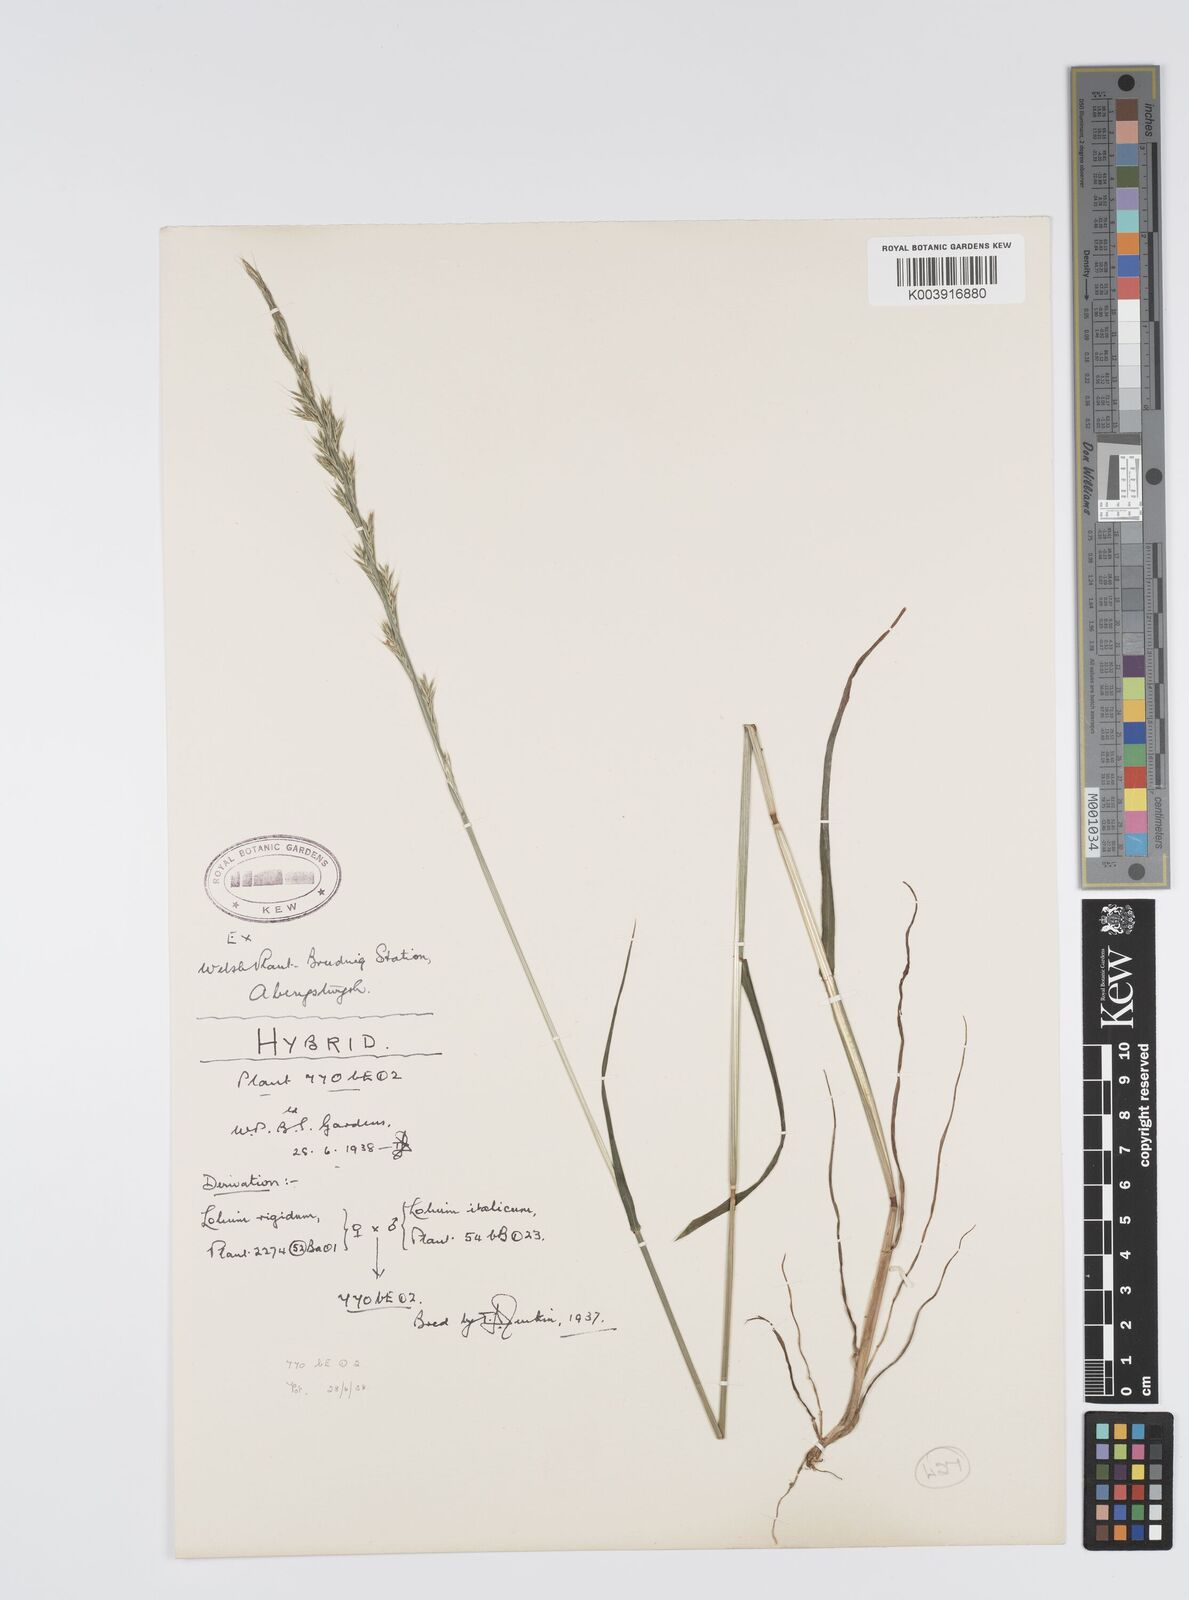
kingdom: Plantae
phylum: Tracheophyta
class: Liliopsida
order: Poales
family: Poaceae
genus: Lolium
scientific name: Lolium multiflorum
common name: Annual ryegrass
